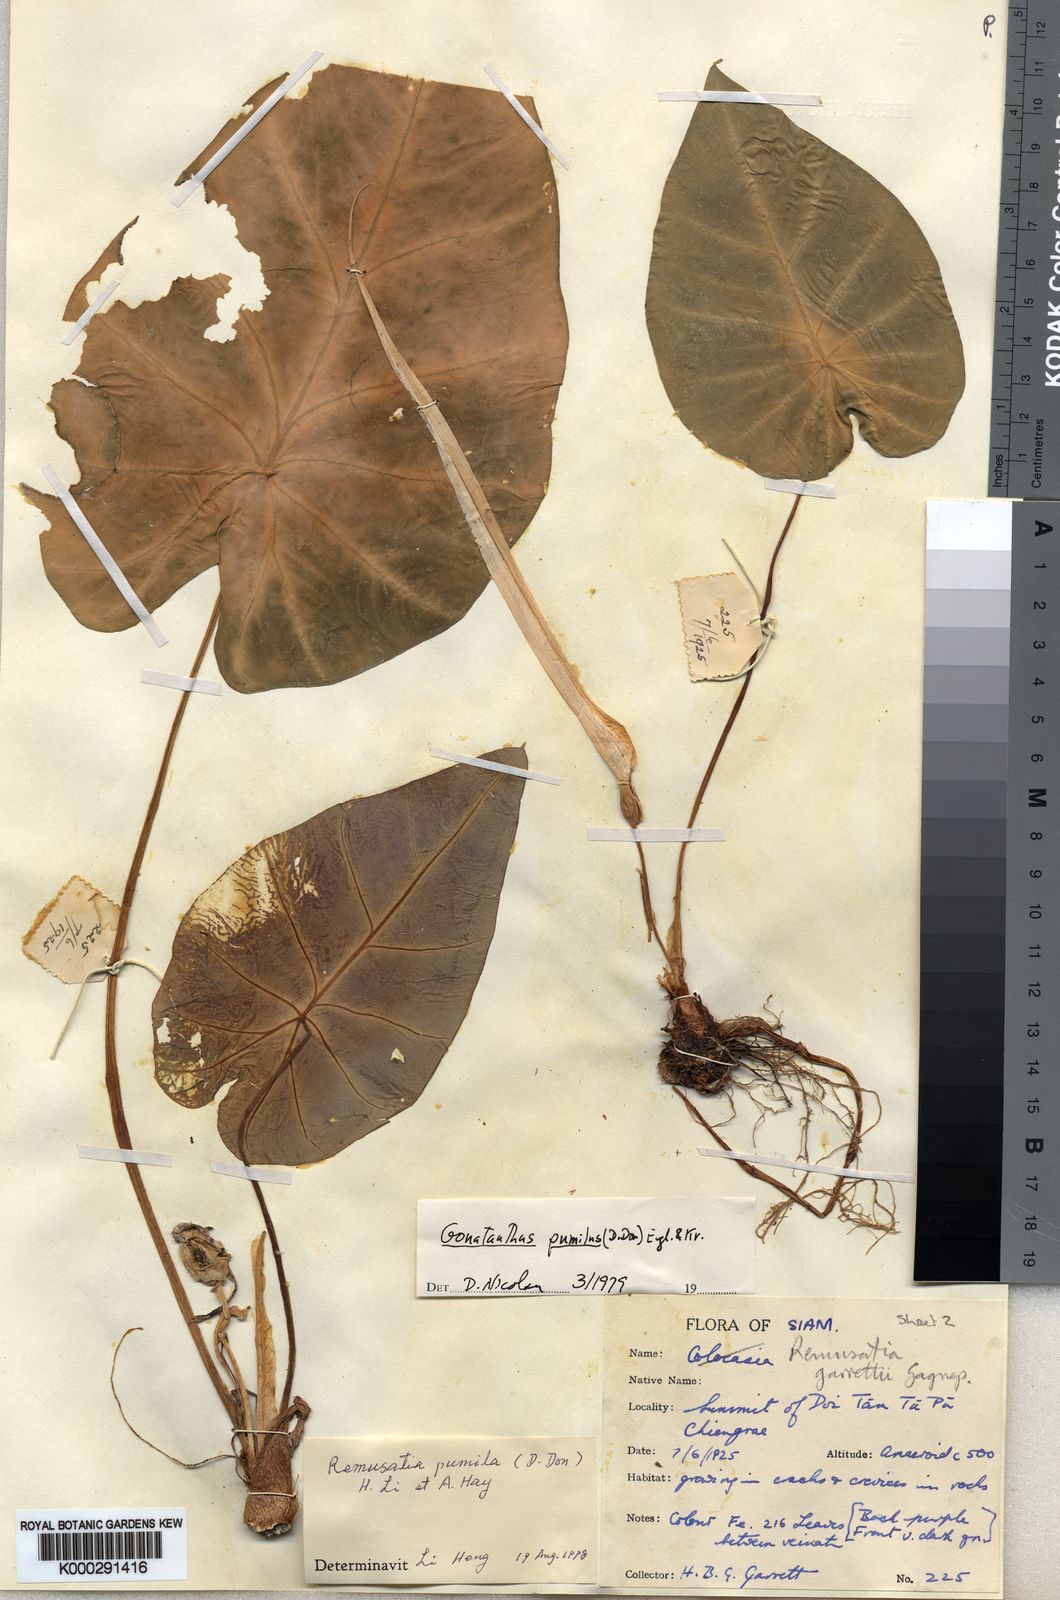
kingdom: Plantae
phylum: Tracheophyta
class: Liliopsida
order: Alismatales
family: Araceae
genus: Remusatia
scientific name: Remusatia pumila
